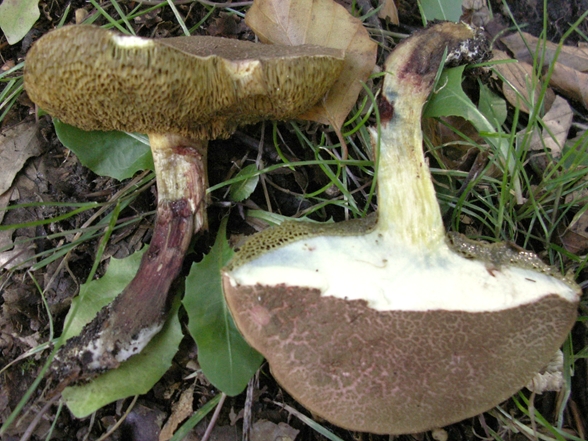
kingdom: Fungi
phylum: Basidiomycota
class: Agaricomycetes
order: Boletales
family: Boletaceae
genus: Xerocomellus
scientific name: Xerocomellus chrysenteron
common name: rødsprukken rørhat
